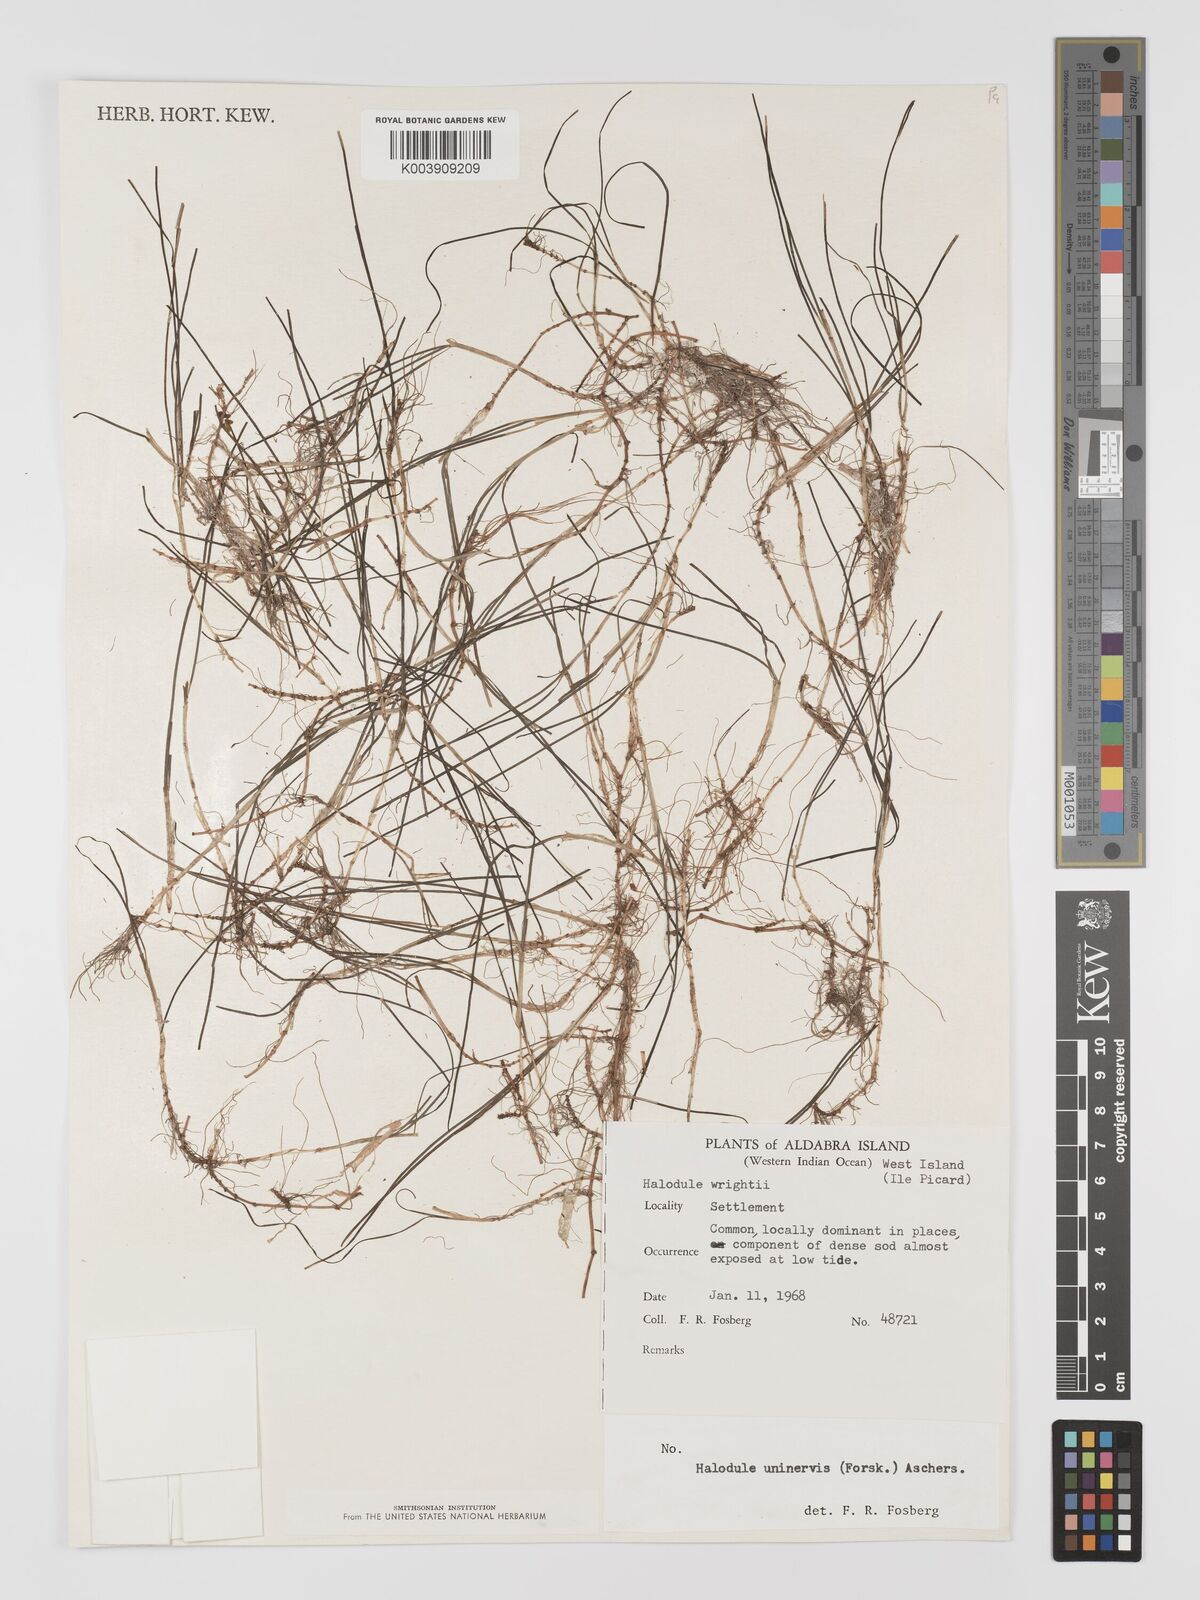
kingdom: Plantae
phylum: Tracheophyta
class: Liliopsida
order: Alismatales
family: Cymodoceaceae
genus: Halodule
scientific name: Halodule uninervis
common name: Narrowleaf seagrass
